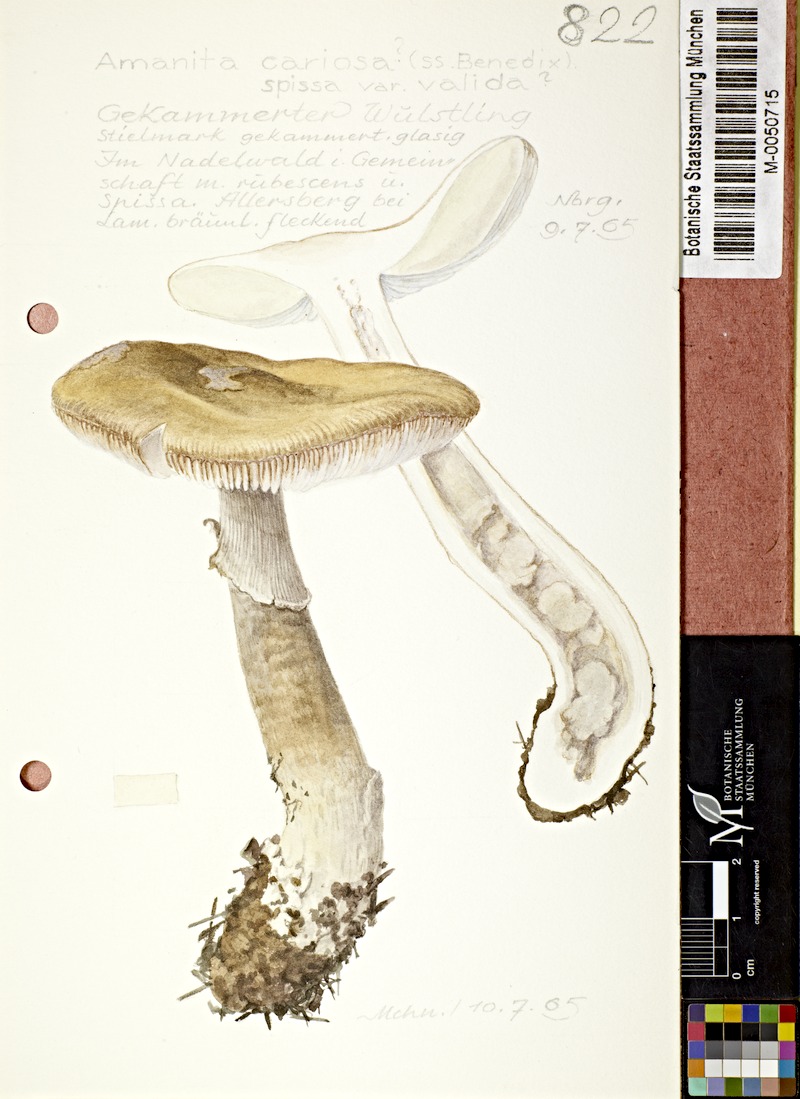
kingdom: Fungi
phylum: Basidiomycota
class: Agaricomycetes
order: Agaricales
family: Amanitaceae
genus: Amanita
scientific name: Amanita excelsa
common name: European false blusher
